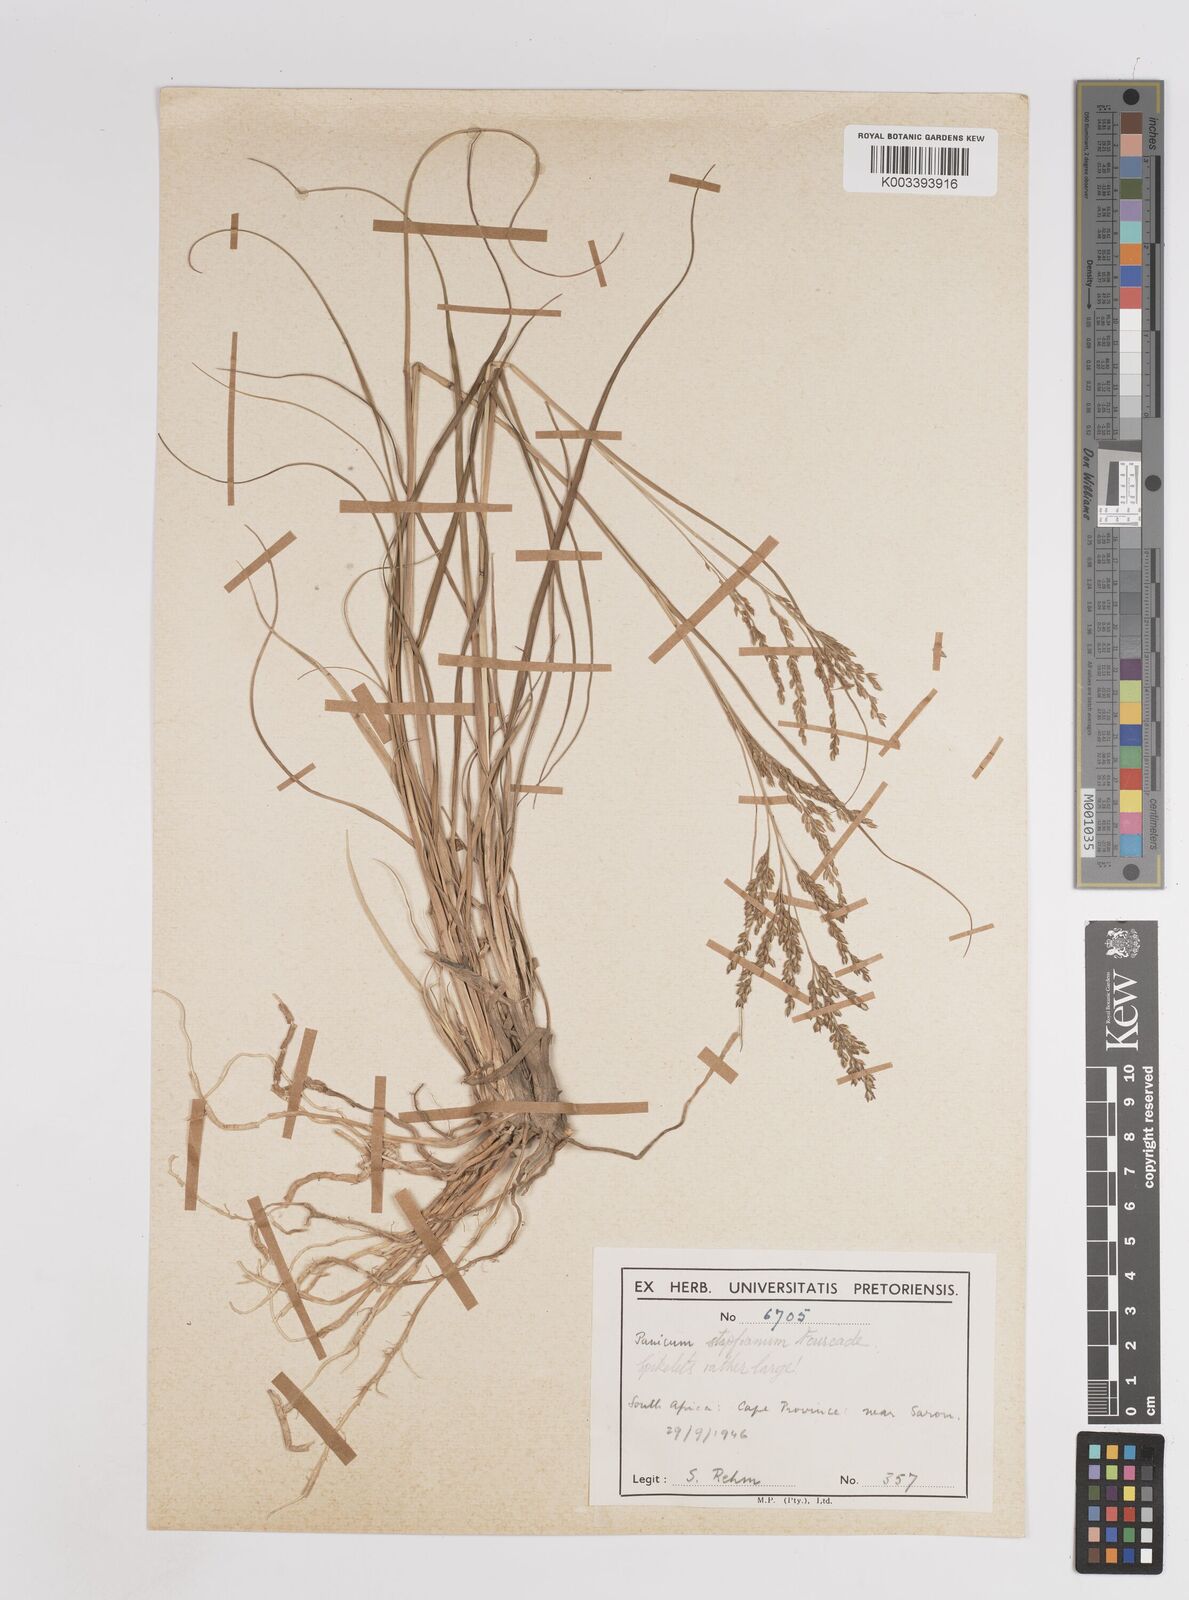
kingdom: Plantae
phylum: Tracheophyta
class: Liliopsida
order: Poales
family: Poaceae
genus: Panicum
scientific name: Panicum stapfianum
